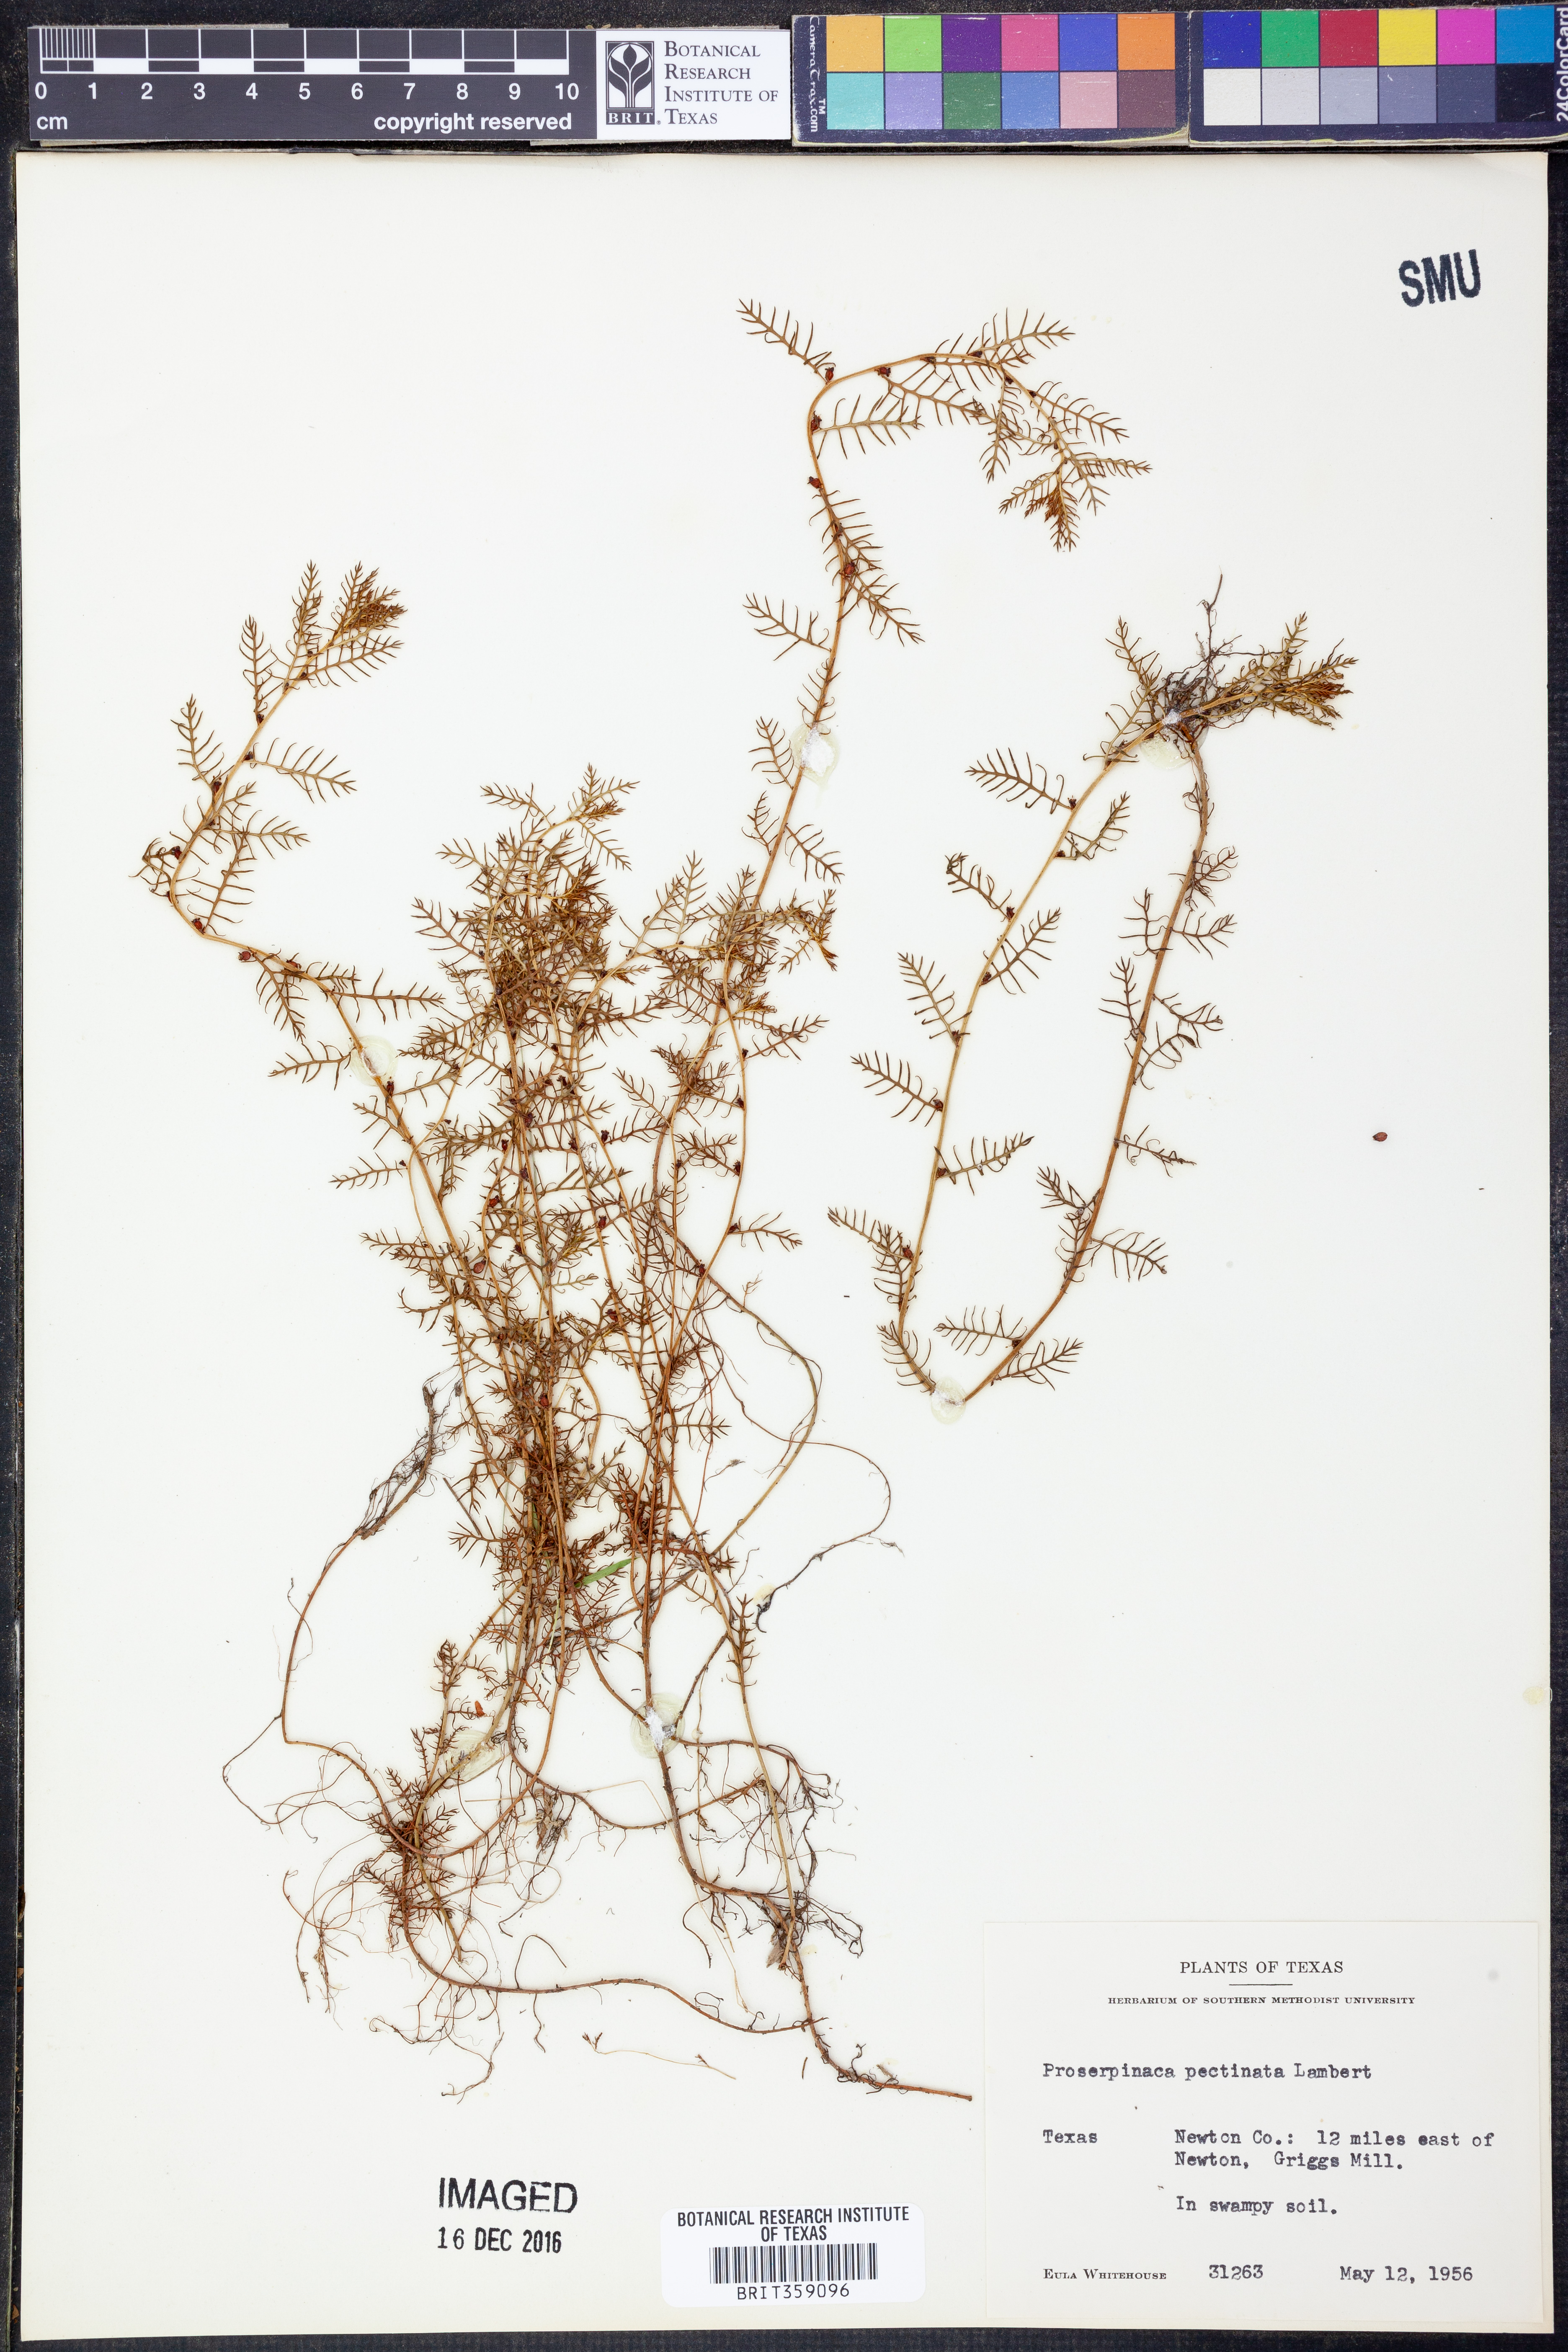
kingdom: Plantae
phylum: Tracheophyta
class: Magnoliopsida
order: Saxifragales
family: Haloragaceae
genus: Proserpinaca
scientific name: Proserpinaca pectinata
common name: Comb-leaved mermaidweed
